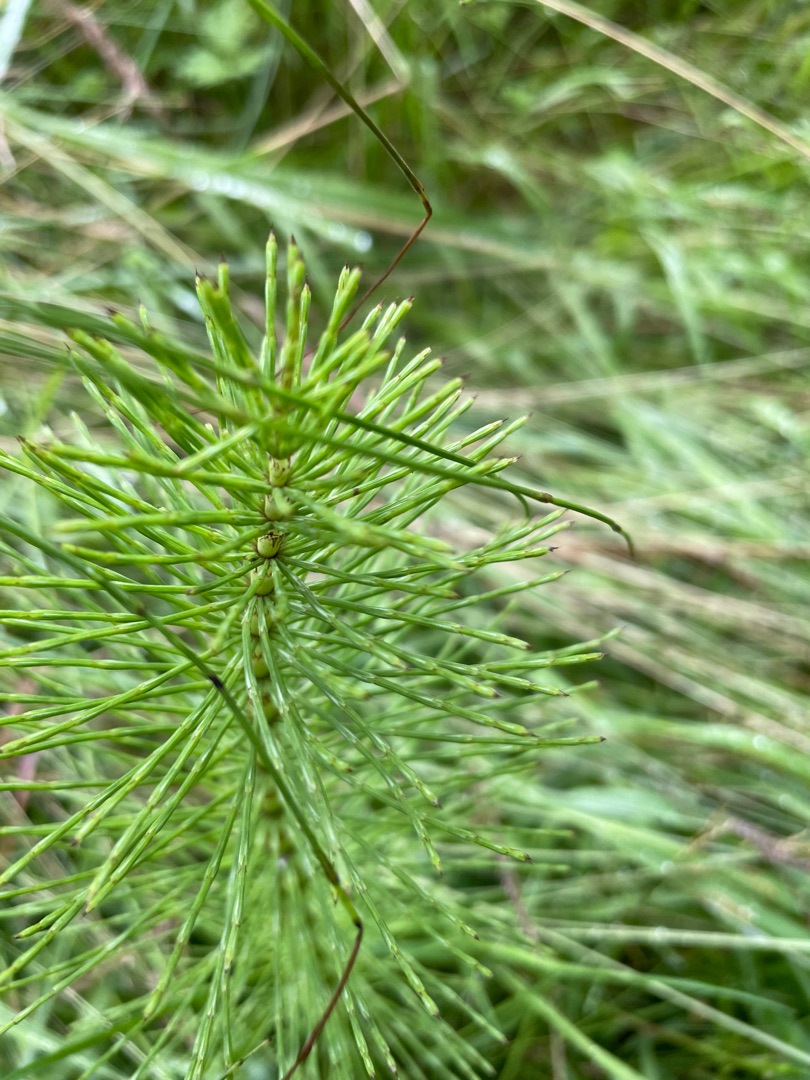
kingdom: Plantae
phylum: Tracheophyta
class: Polypodiopsida
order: Equisetales
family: Equisetaceae
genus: Equisetum
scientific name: Equisetum telmateia
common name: Elfenbens-padderok
